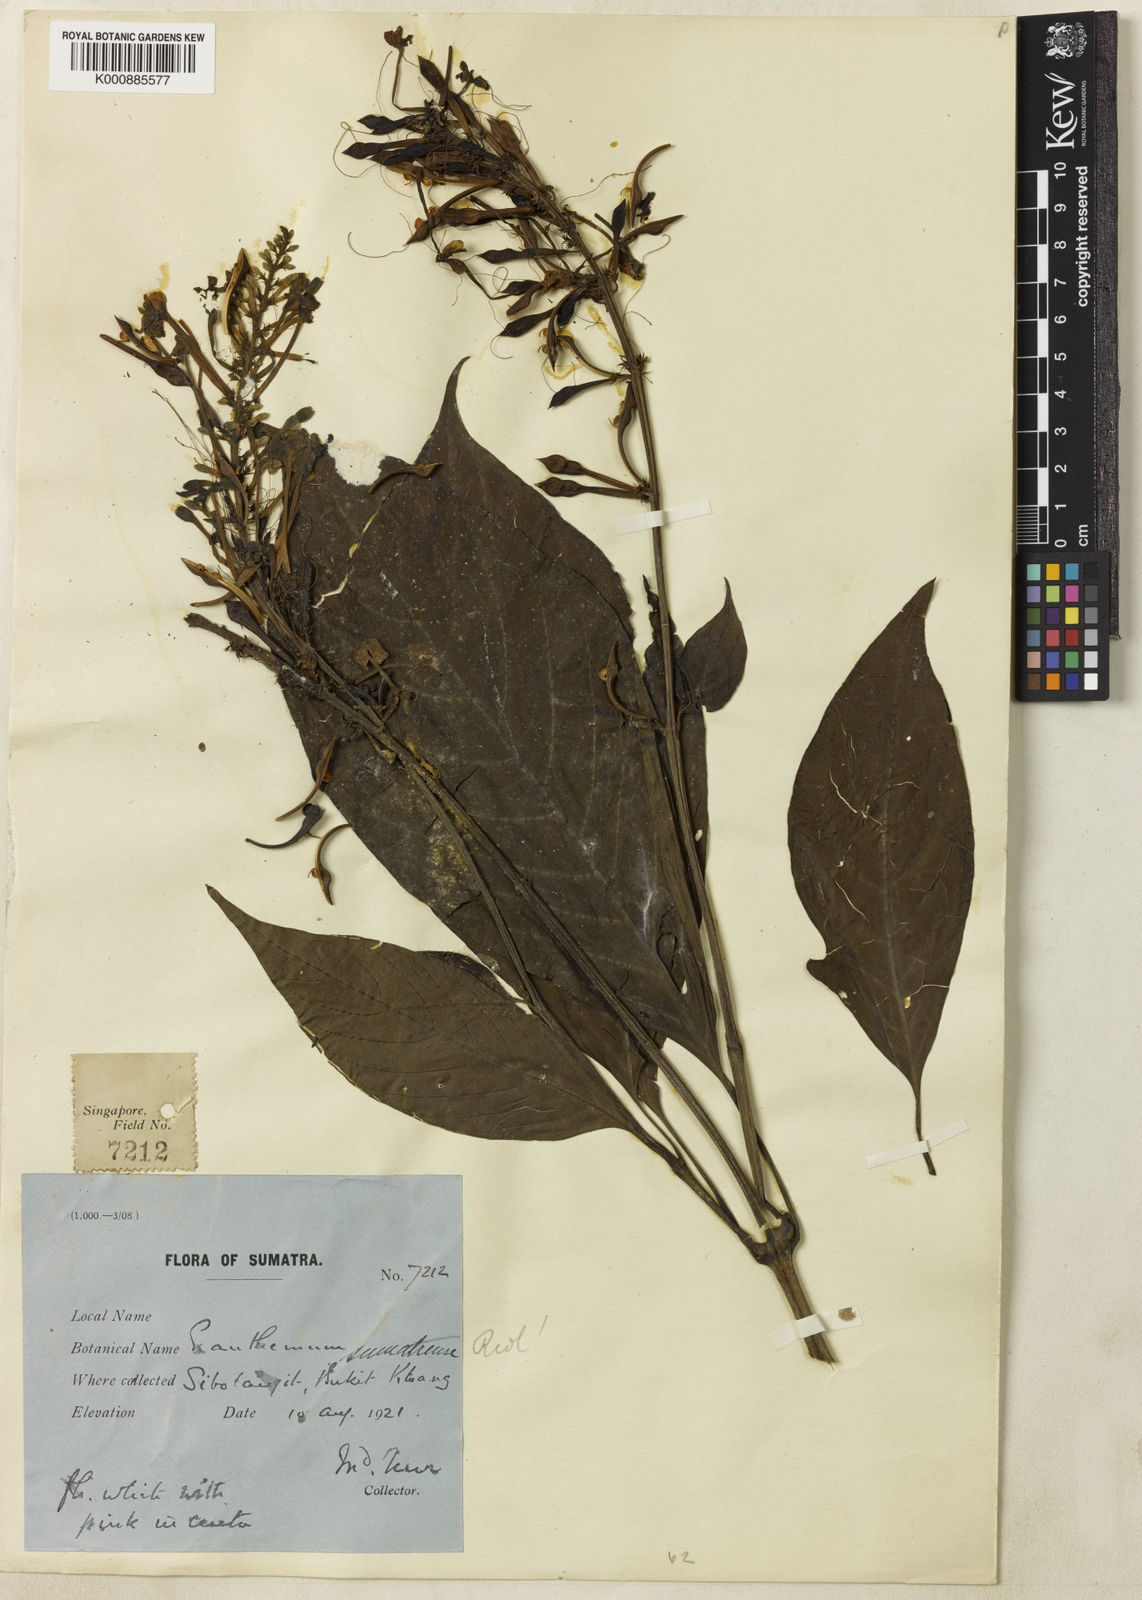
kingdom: Plantae
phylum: Tracheophyta
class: Magnoliopsida
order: Lamiales
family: Acanthaceae
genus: Pseuderanthemum
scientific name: Pseuderanthemum sumatrense
